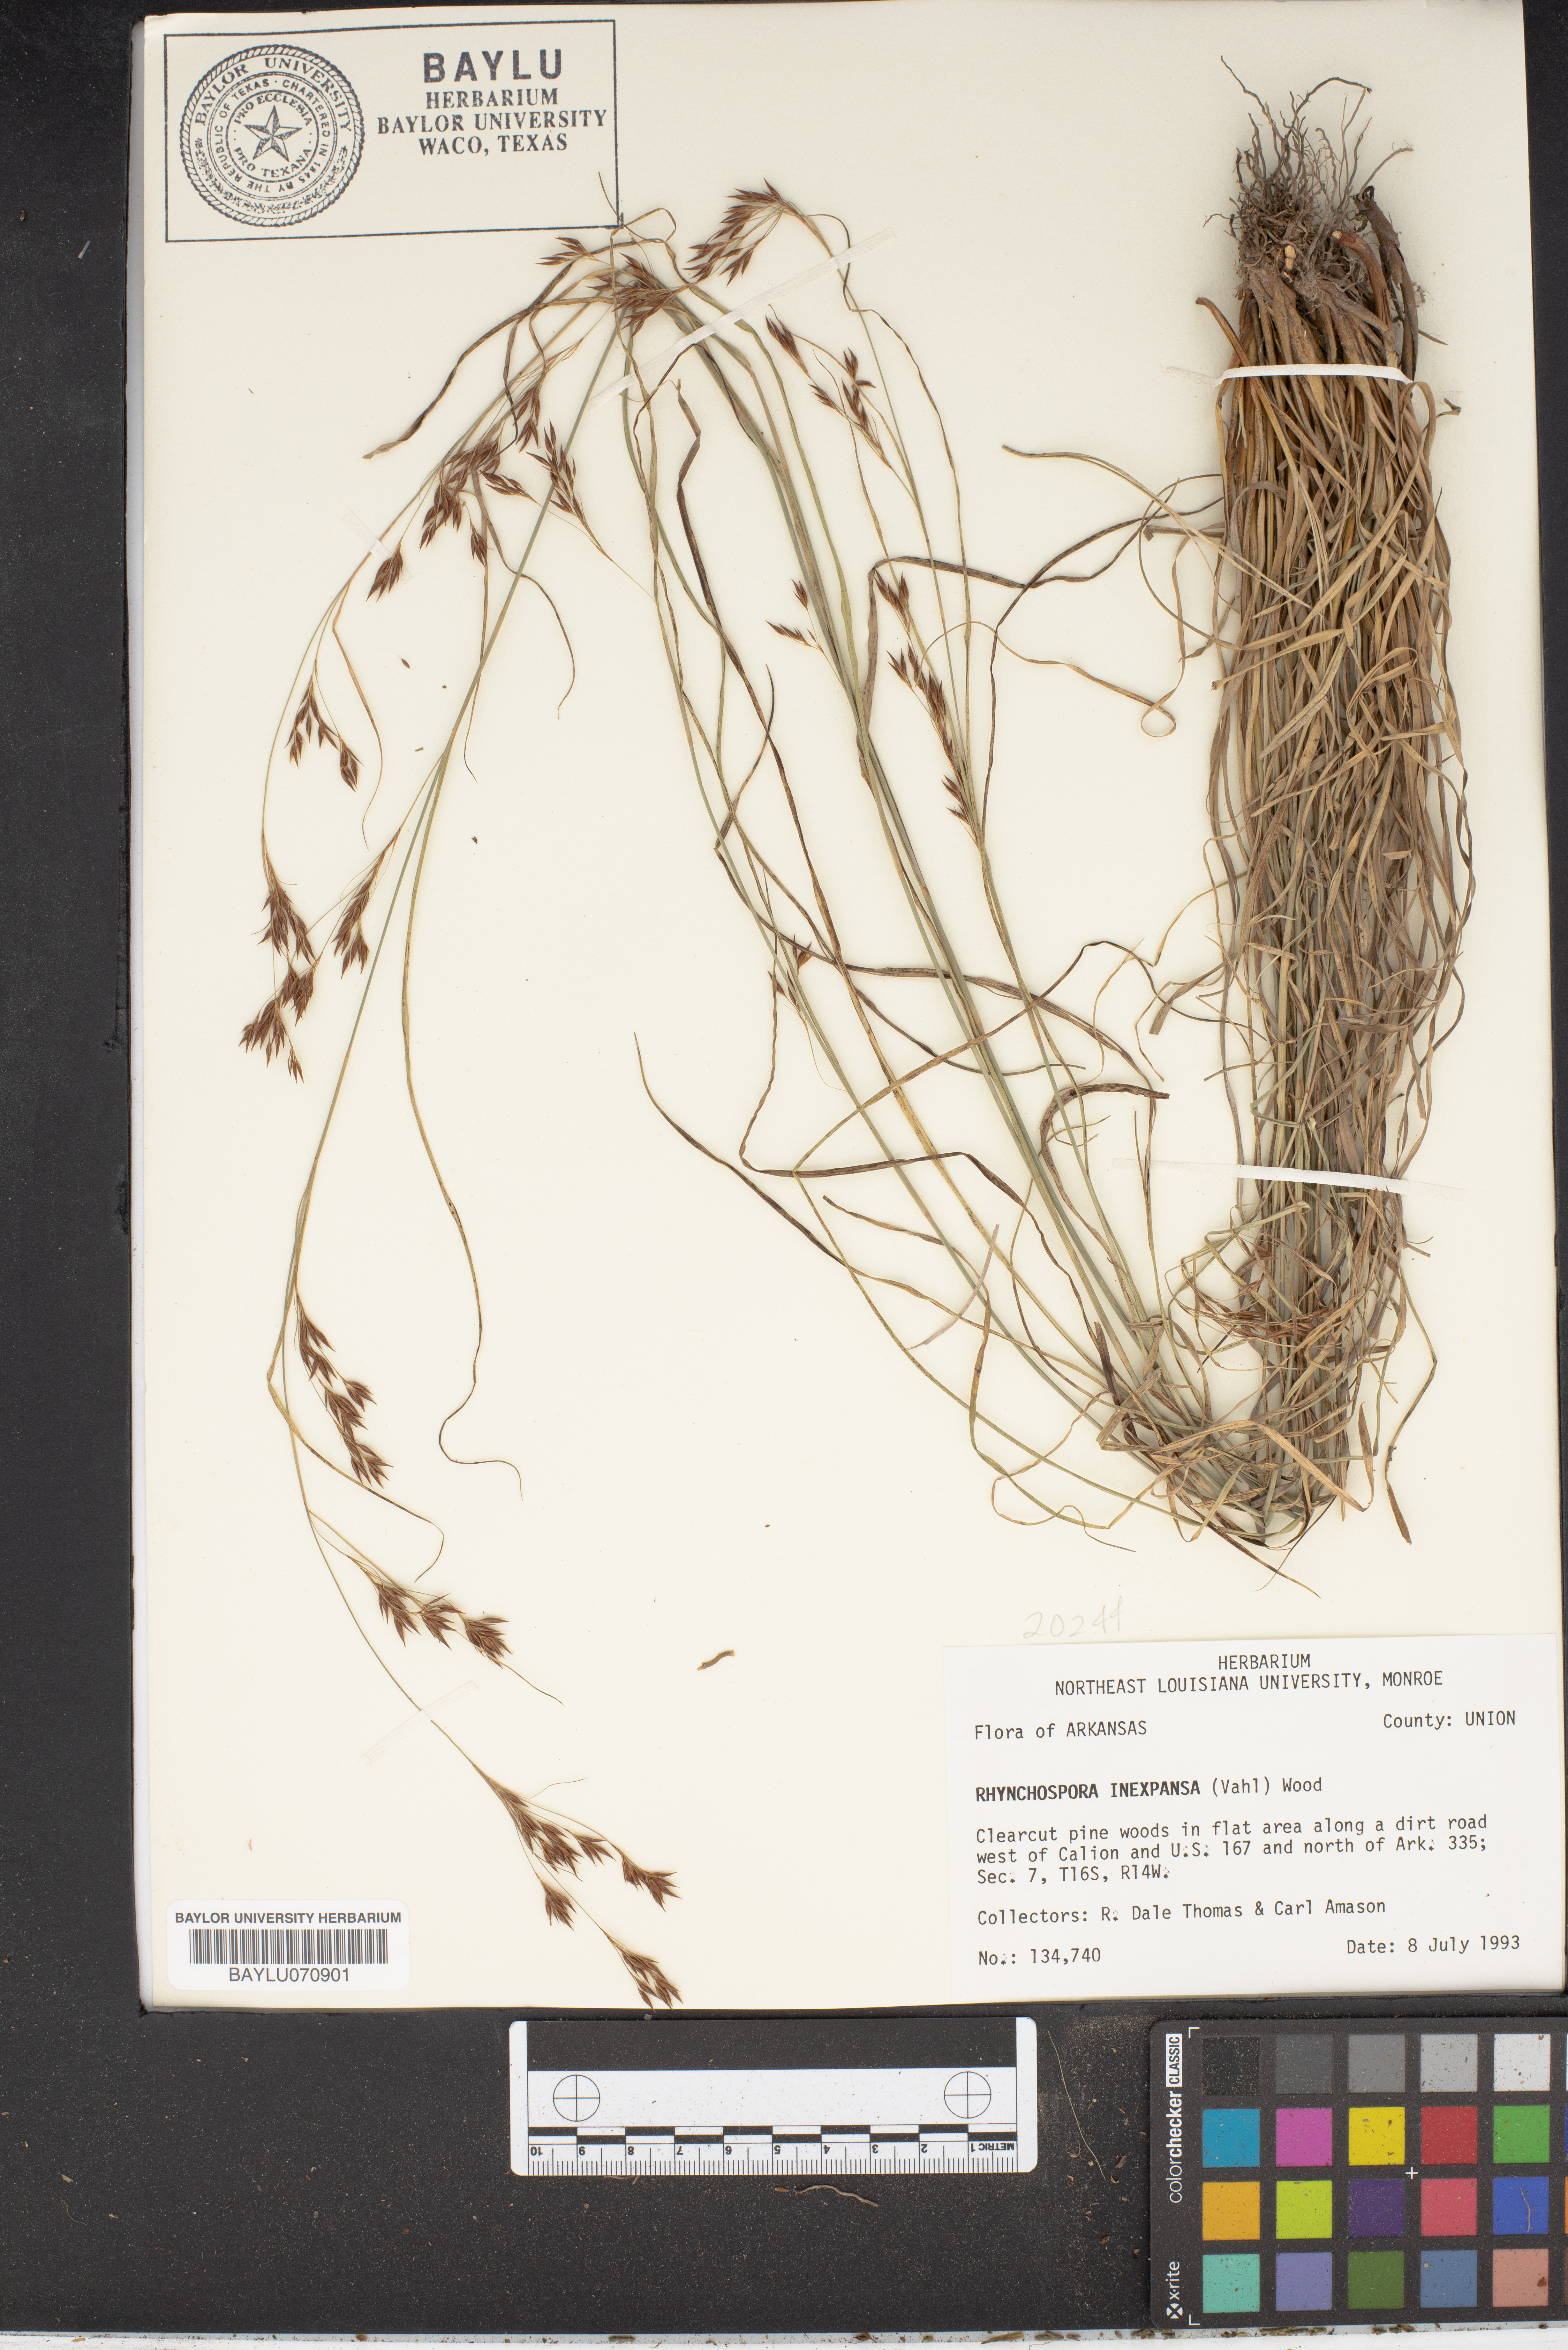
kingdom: Plantae
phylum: Tracheophyta
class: Liliopsida
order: Poales
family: Cyperaceae
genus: Rhynchospora
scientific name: Rhynchospora inexpansa
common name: Nodding beaksedge
